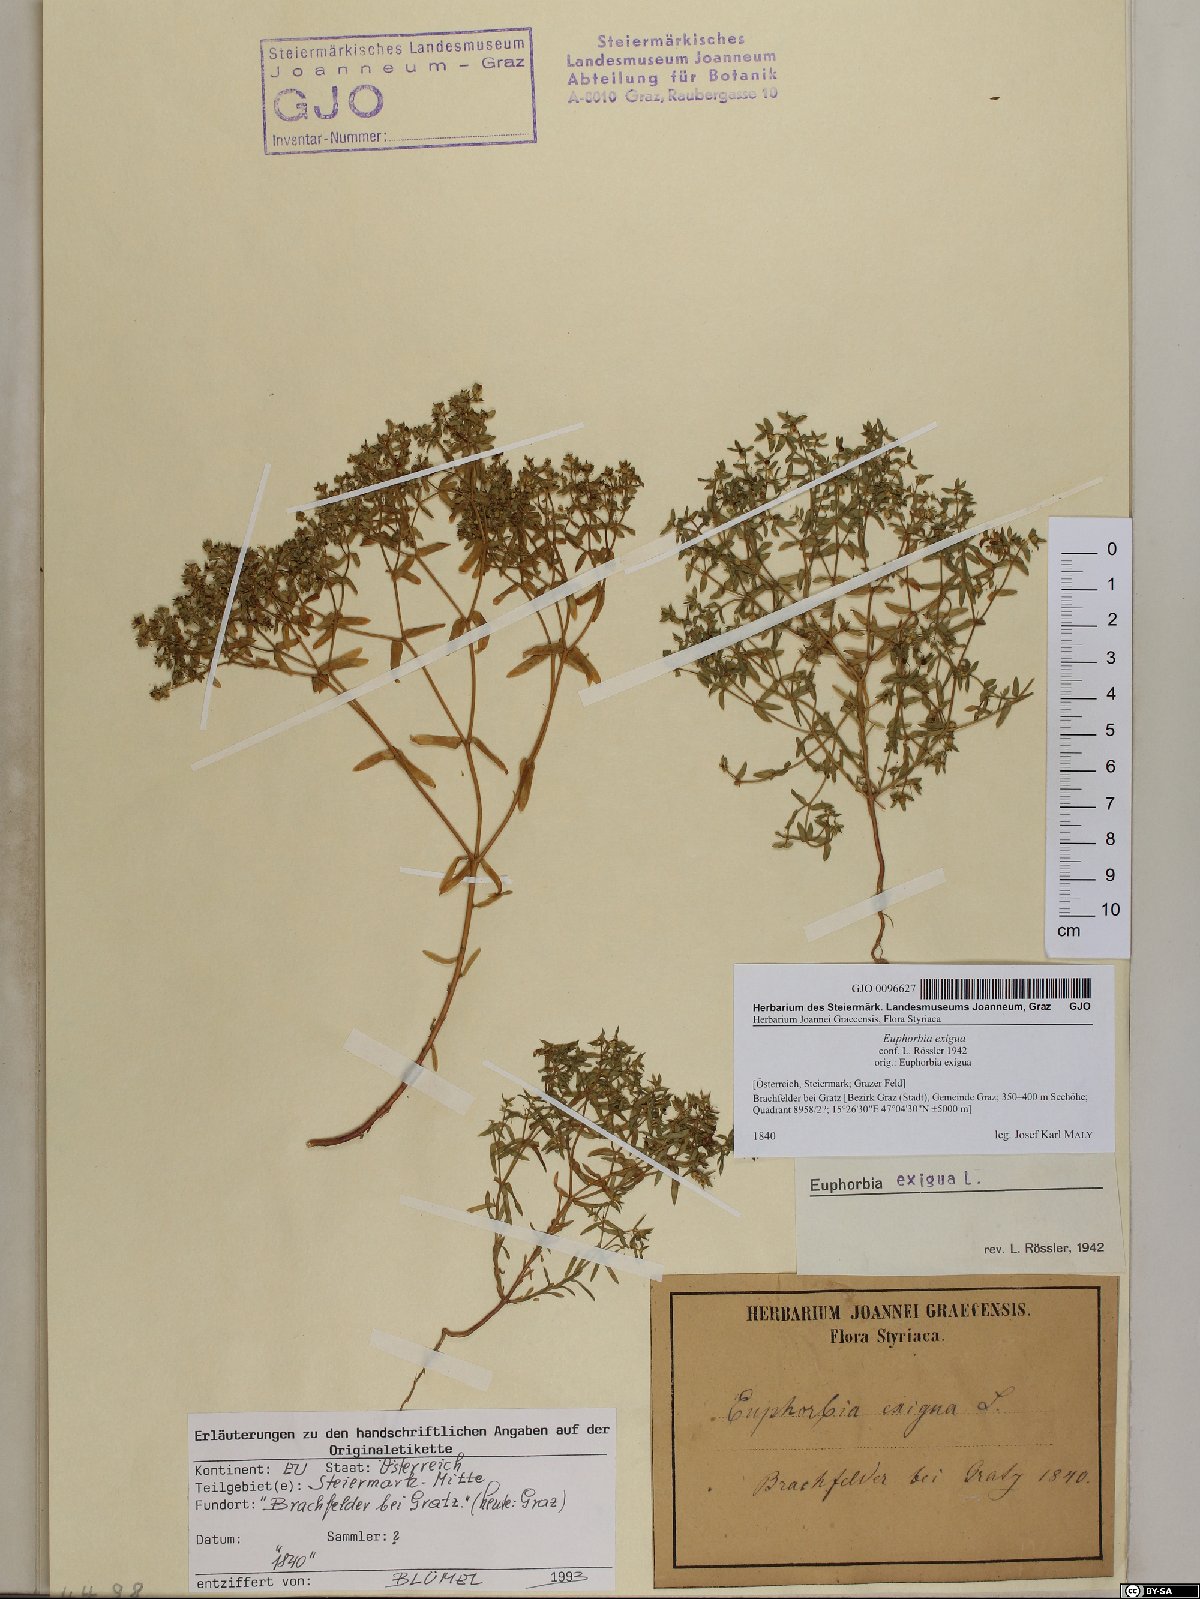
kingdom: Plantae
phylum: Tracheophyta
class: Magnoliopsida
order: Malpighiales
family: Euphorbiaceae
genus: Euphorbia
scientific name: Euphorbia exigua
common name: Dwarf spurge
